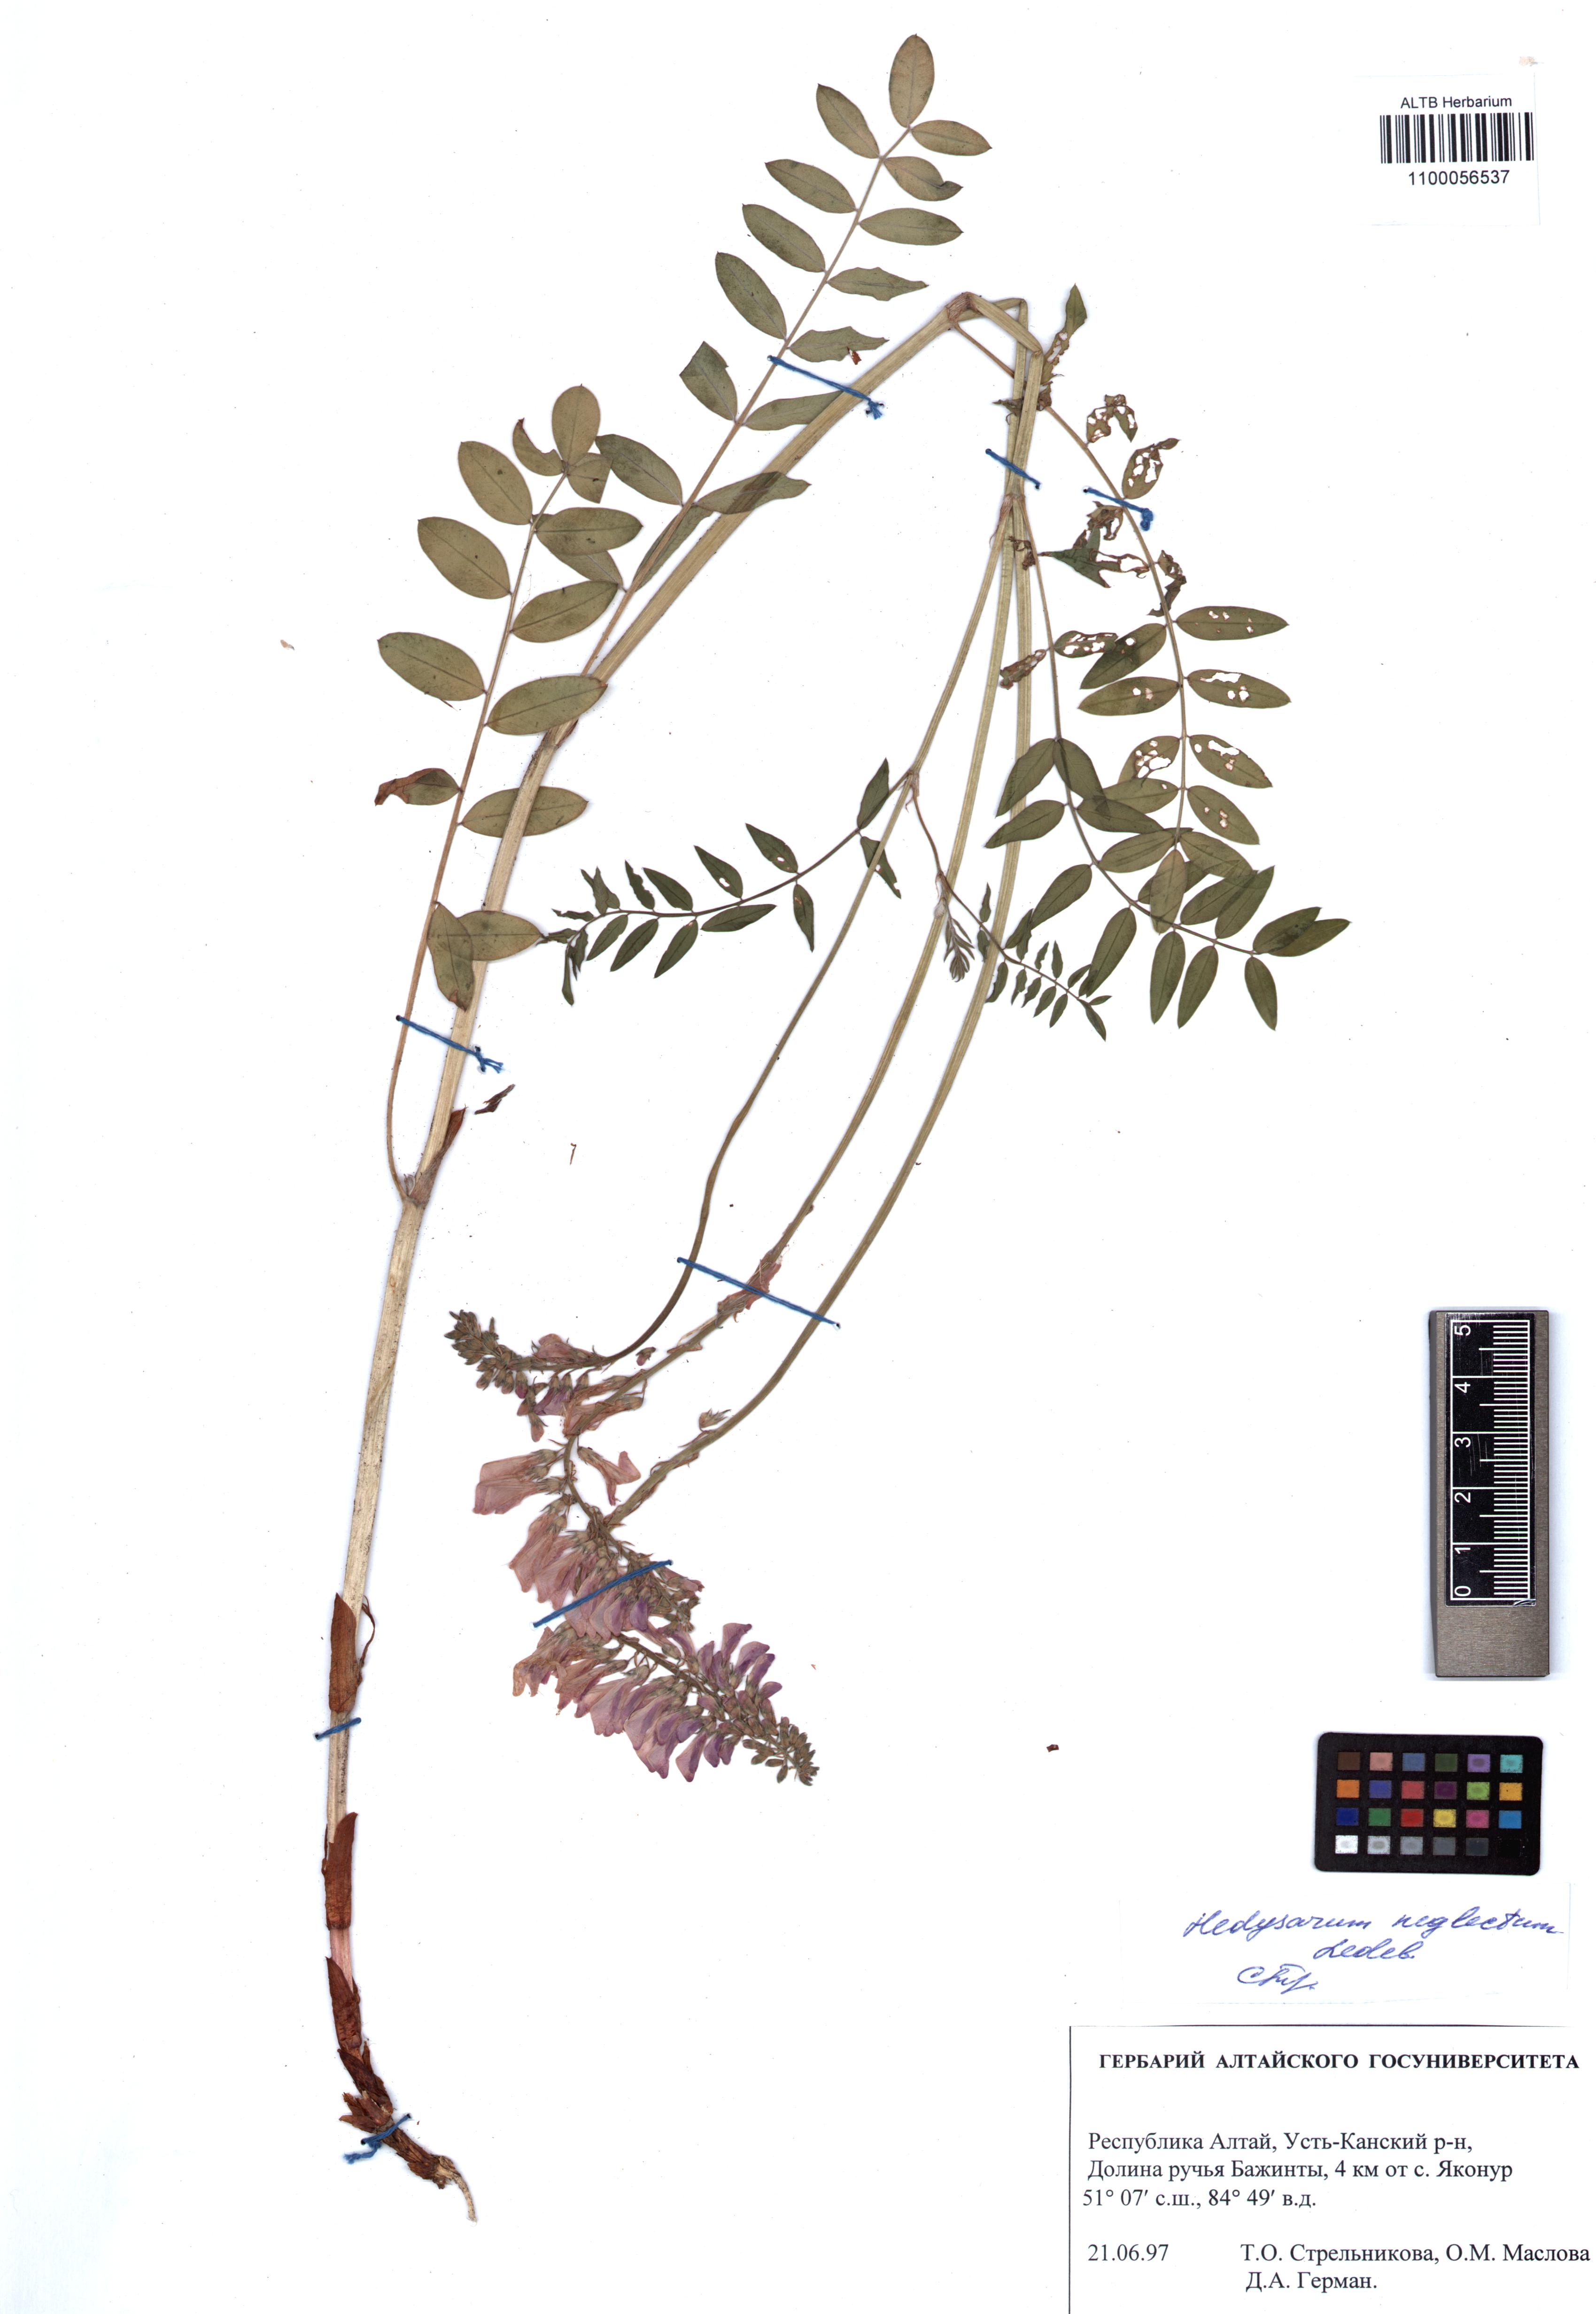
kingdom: Plantae
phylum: Tracheophyta
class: Magnoliopsida
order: Fabales
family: Fabaceae
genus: Hedysarum
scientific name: Hedysarum neglectum
